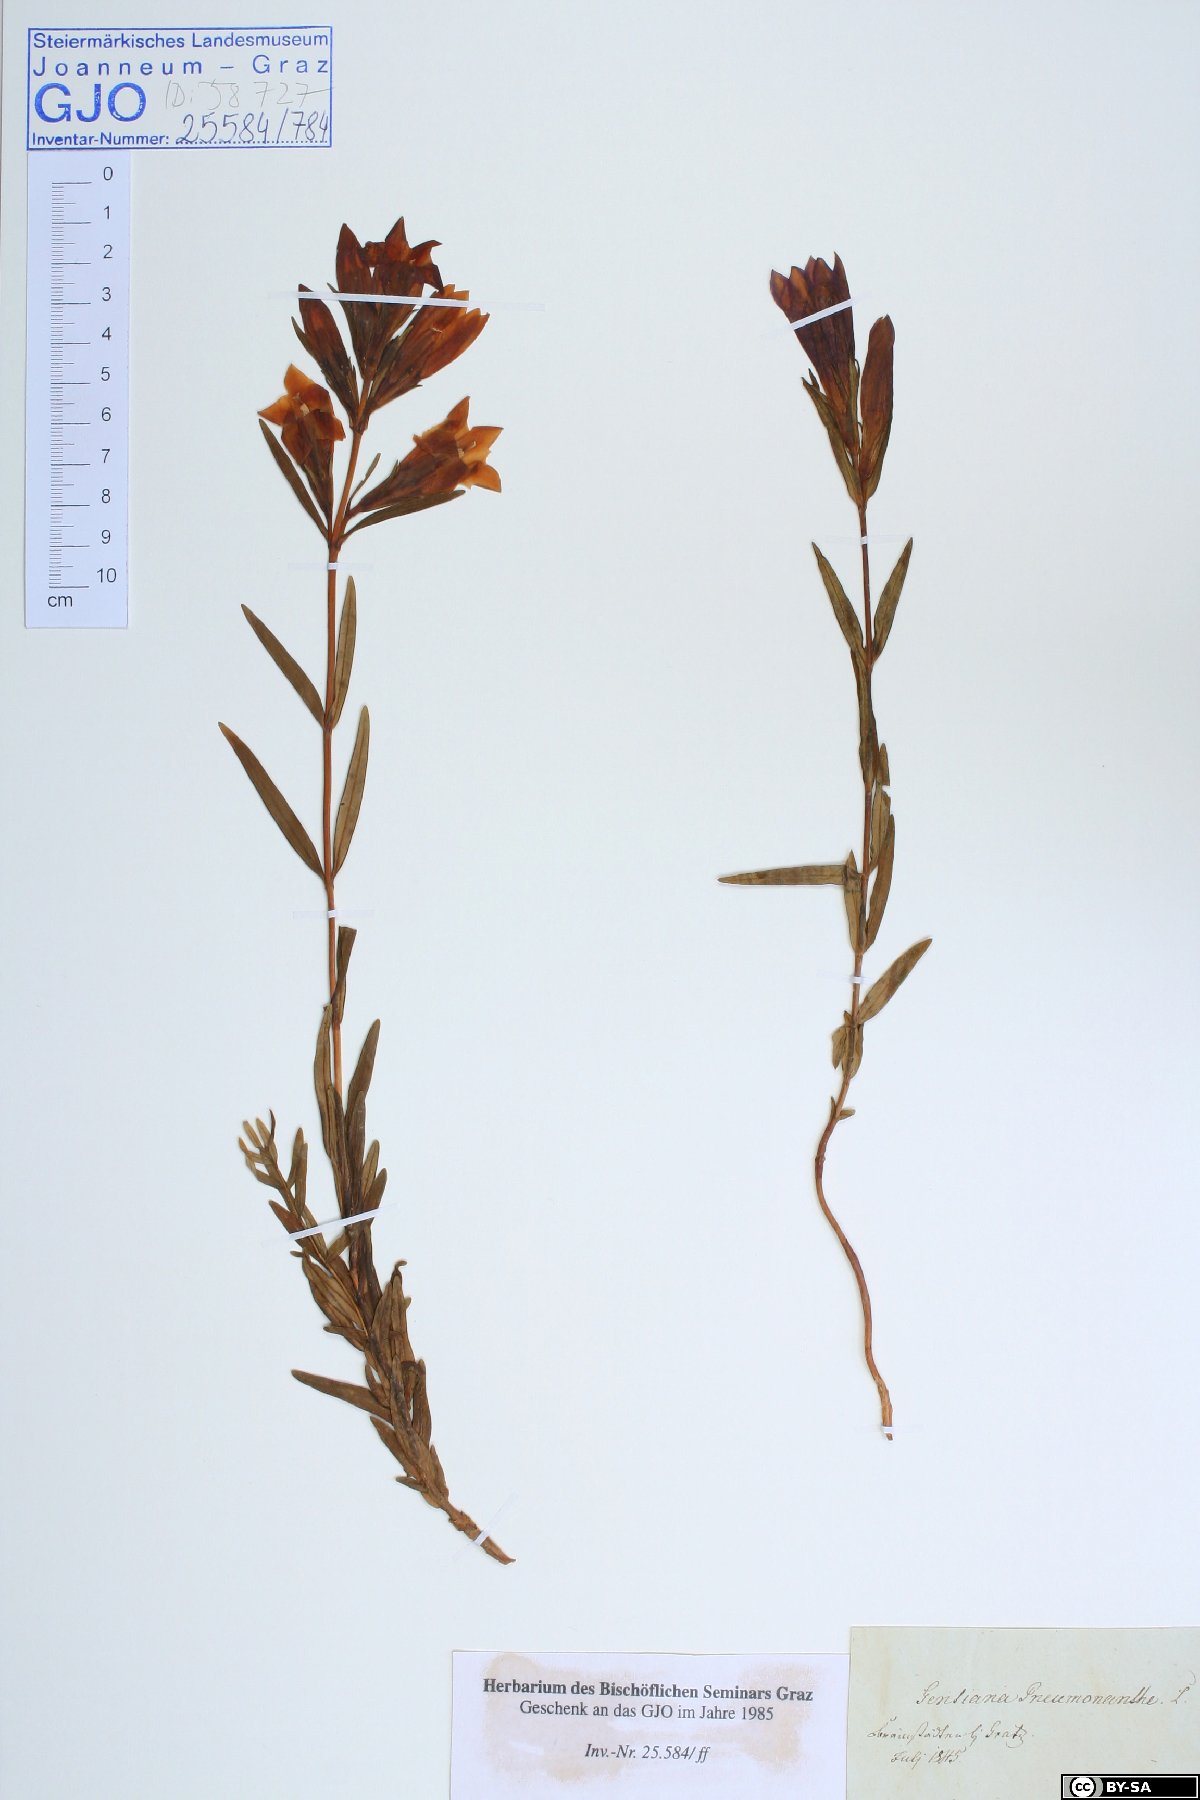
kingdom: Plantae
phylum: Tracheophyta
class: Magnoliopsida
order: Gentianales
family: Gentianaceae
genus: Gentiana
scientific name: Gentiana pneumonanthe
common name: Marsh gentian
